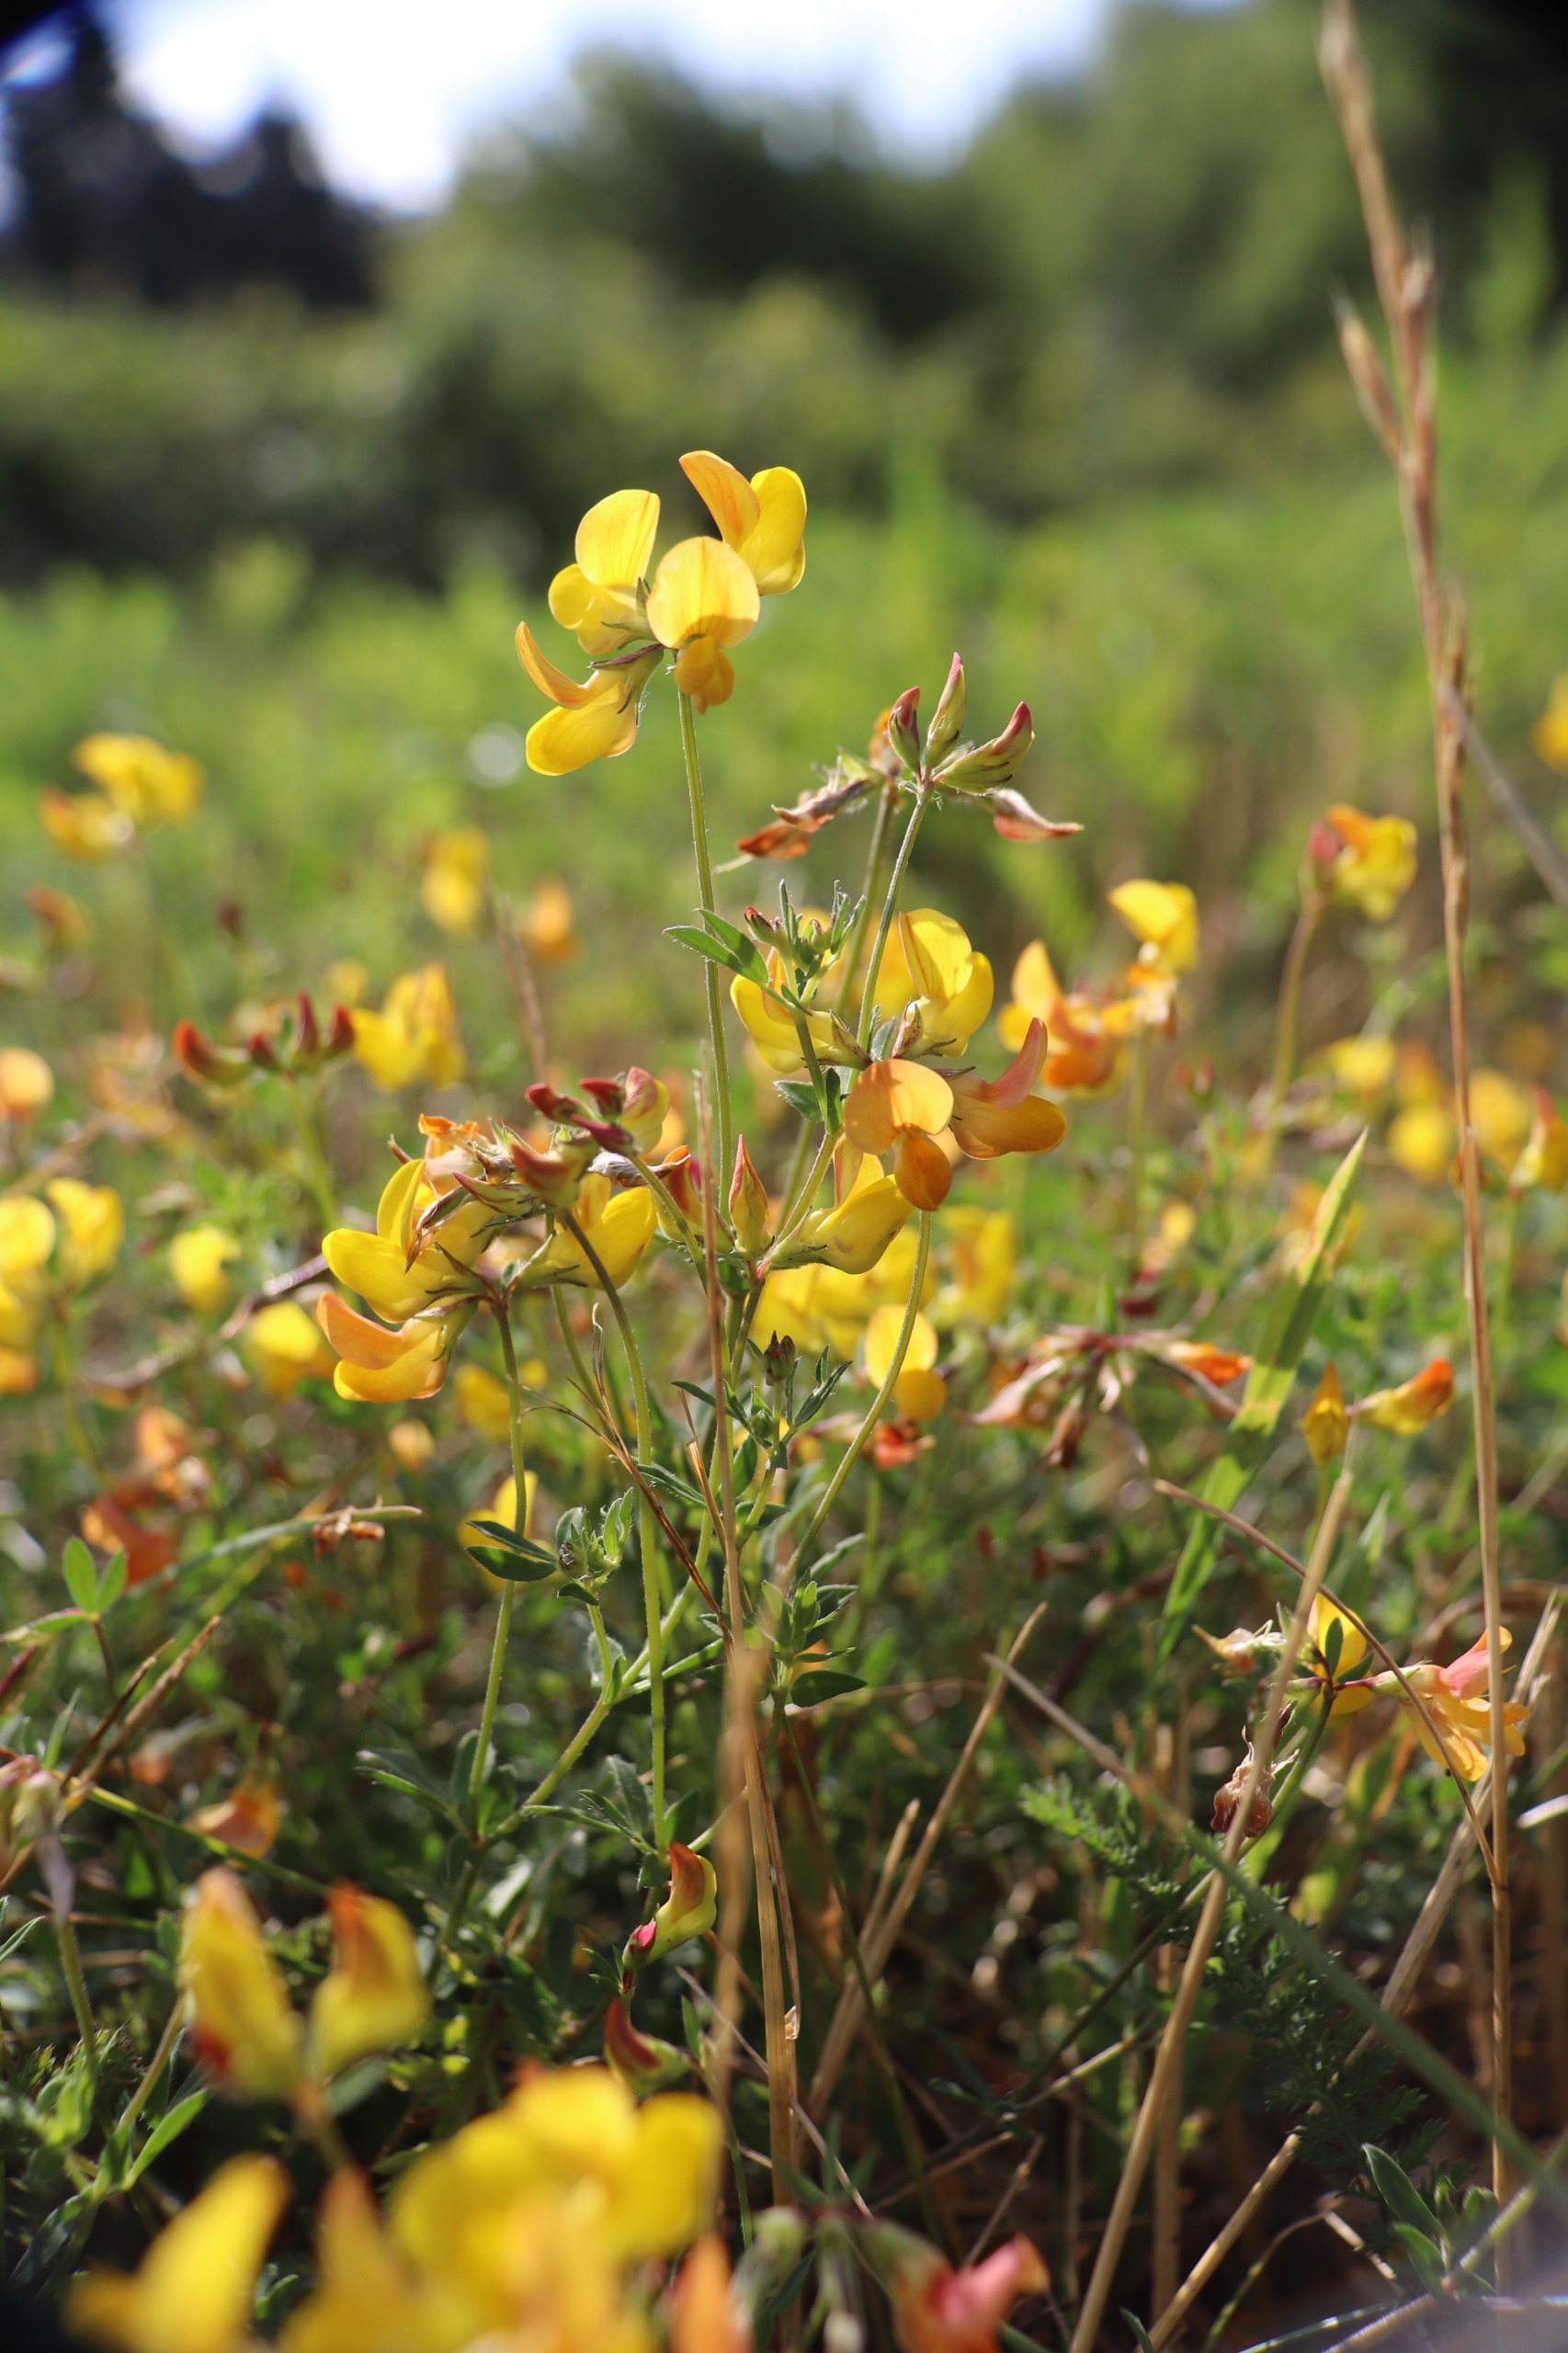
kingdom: Plantae
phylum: Tracheophyta
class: Magnoliopsida
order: Fabales
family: Fabaceae
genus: Lotus
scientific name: Lotus corniculatus
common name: Almindelig kællingetand
